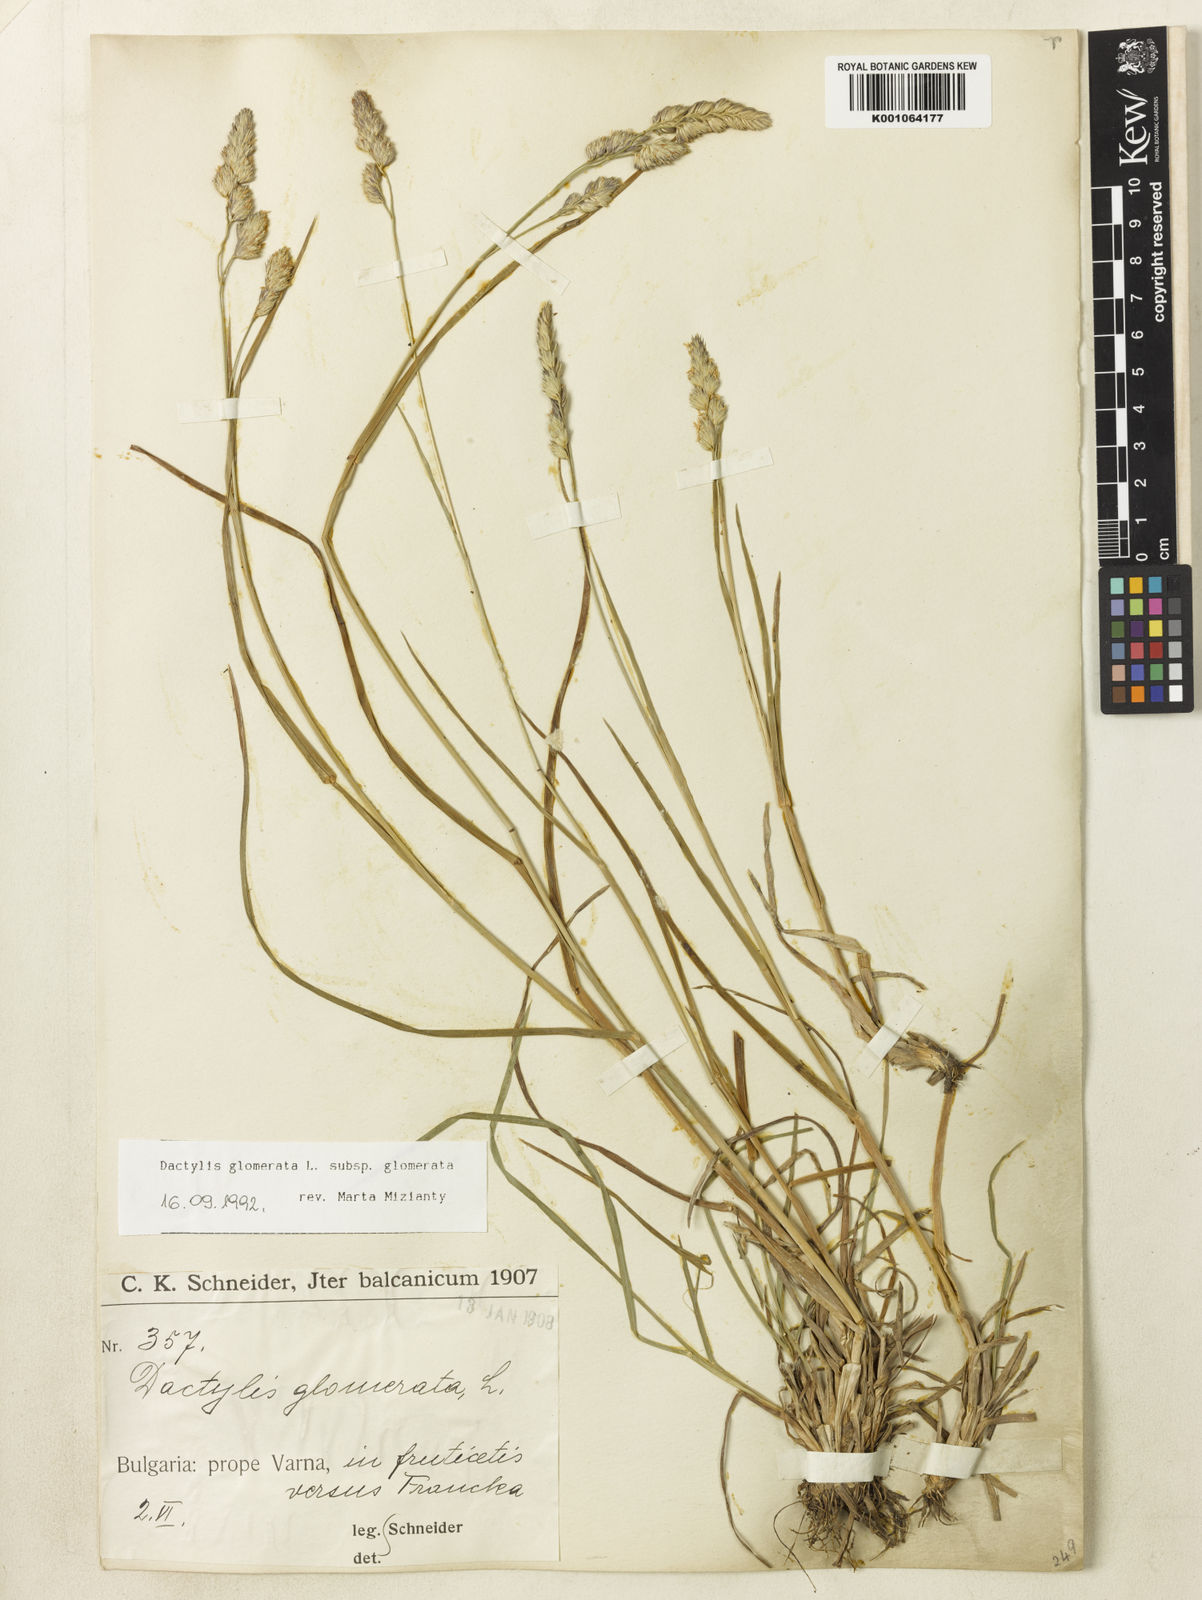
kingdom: Plantae
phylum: Tracheophyta
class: Liliopsida
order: Poales
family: Poaceae
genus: Dactylis
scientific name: Dactylis glomerata
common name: Orchardgrass
